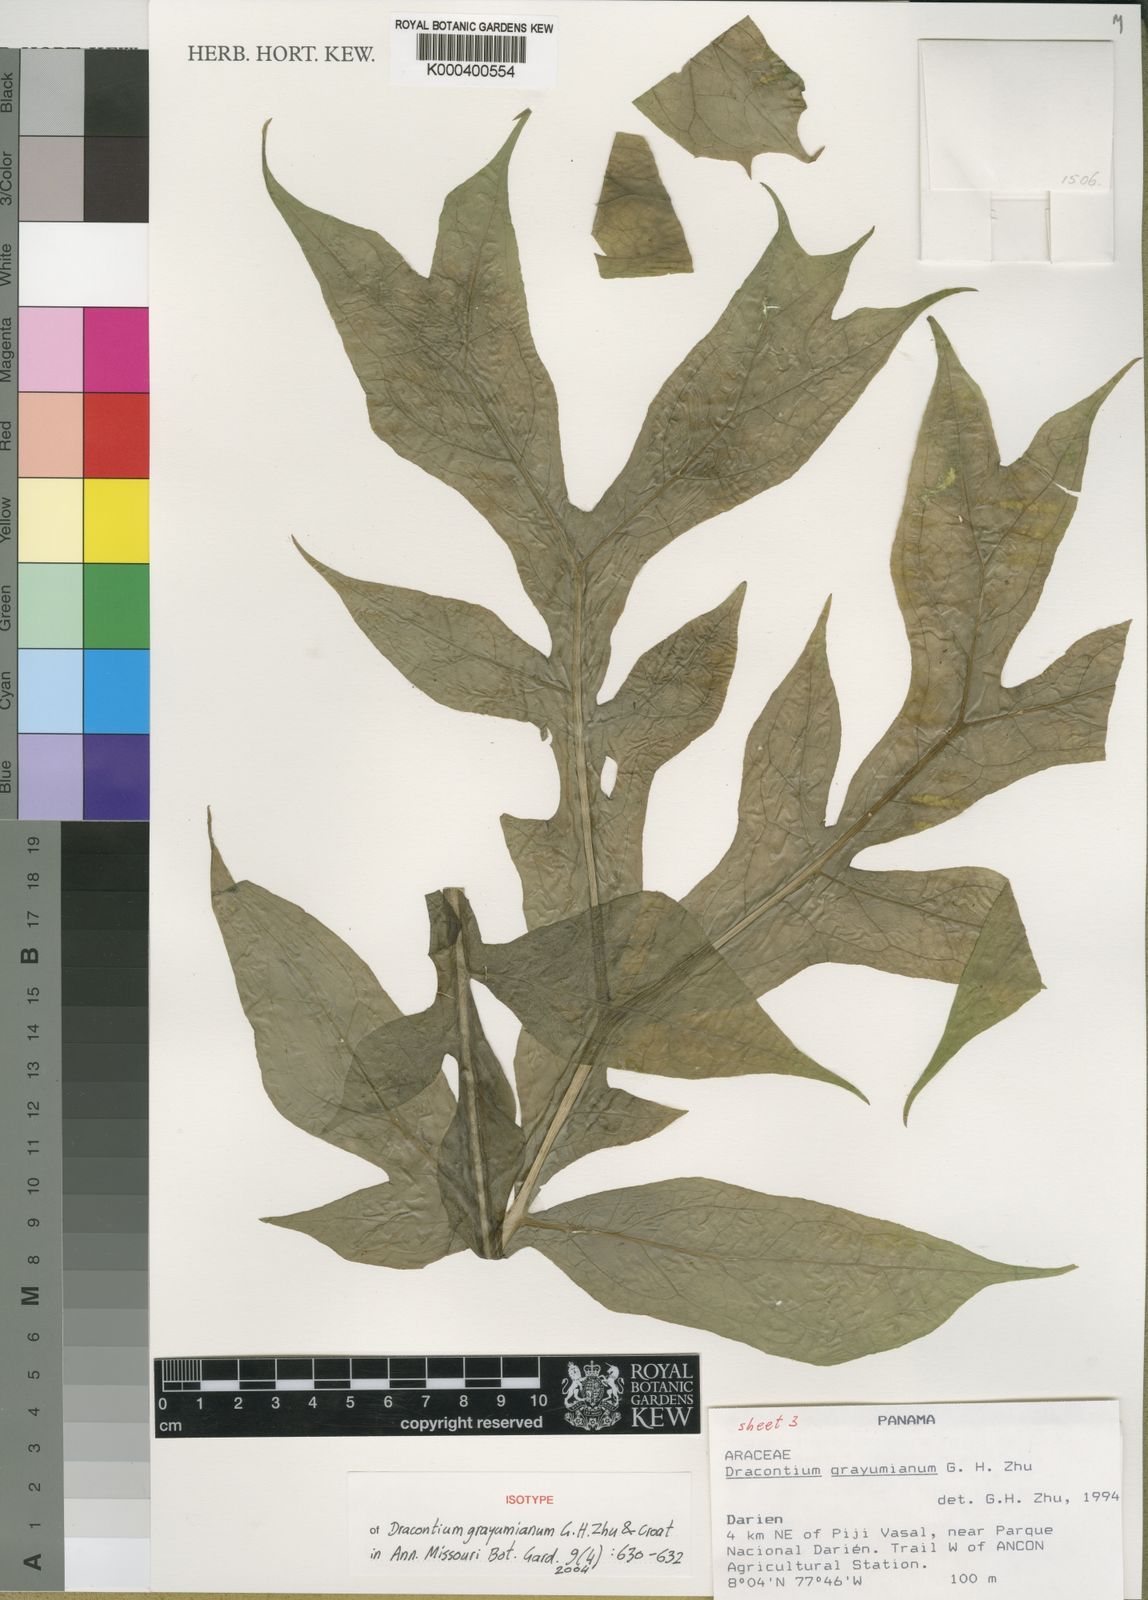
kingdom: Plantae
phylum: Tracheophyta
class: Liliopsida
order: Alismatales
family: Araceae
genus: Dracontium
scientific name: Dracontium grayumianum
